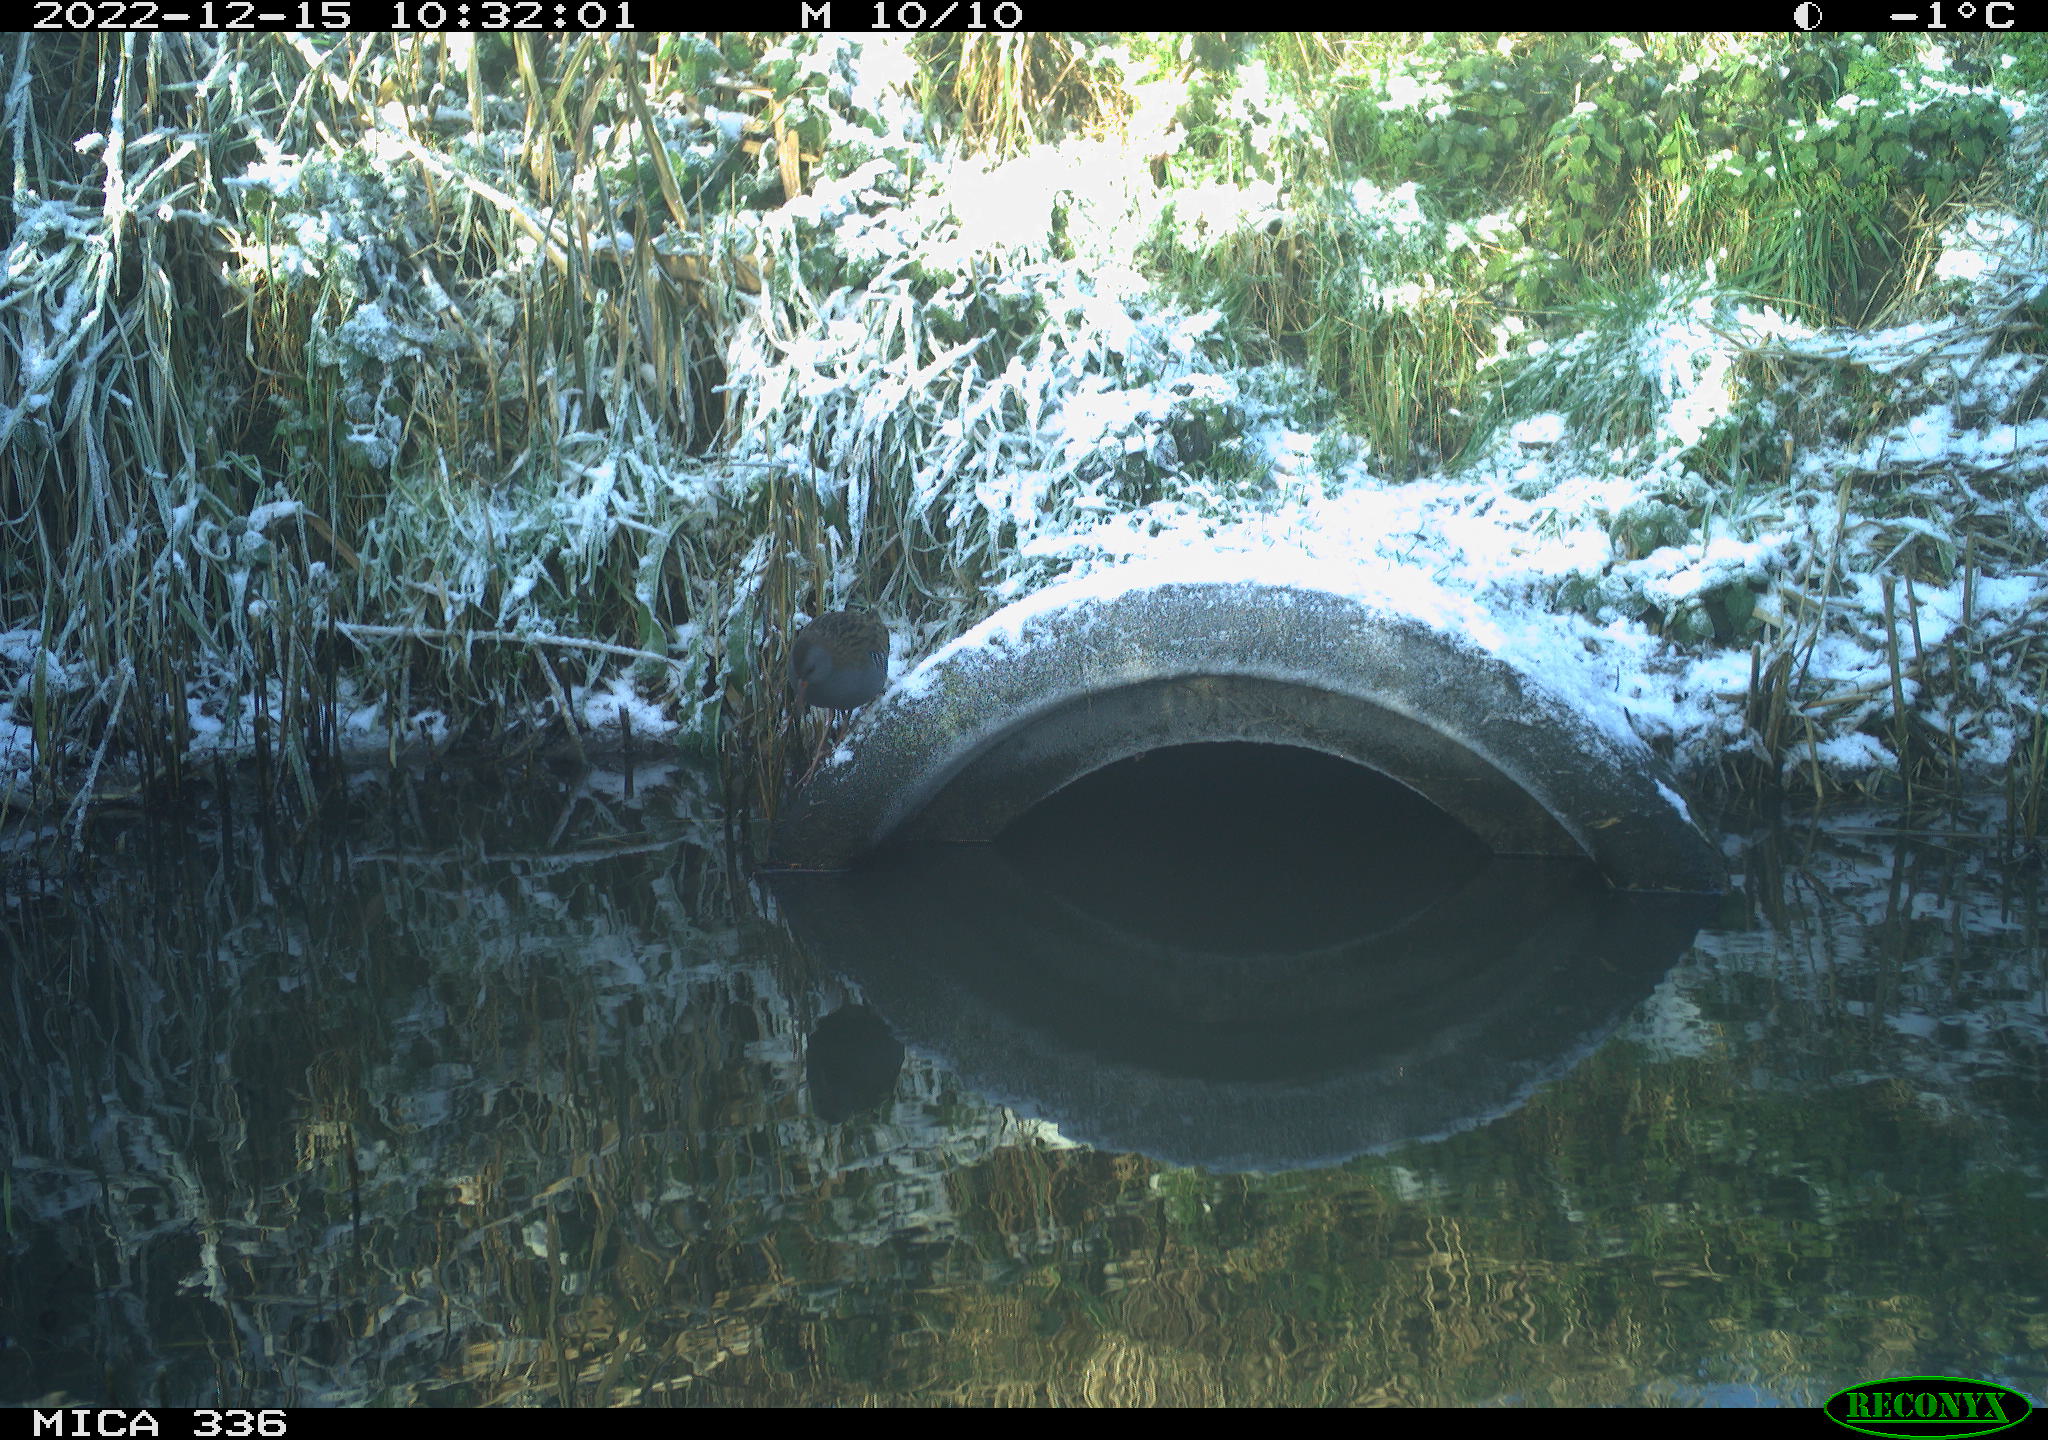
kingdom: Animalia
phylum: Chordata
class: Aves
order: Gruiformes
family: Rallidae
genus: Rallus
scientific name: Rallus aquaticus
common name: Water rail
